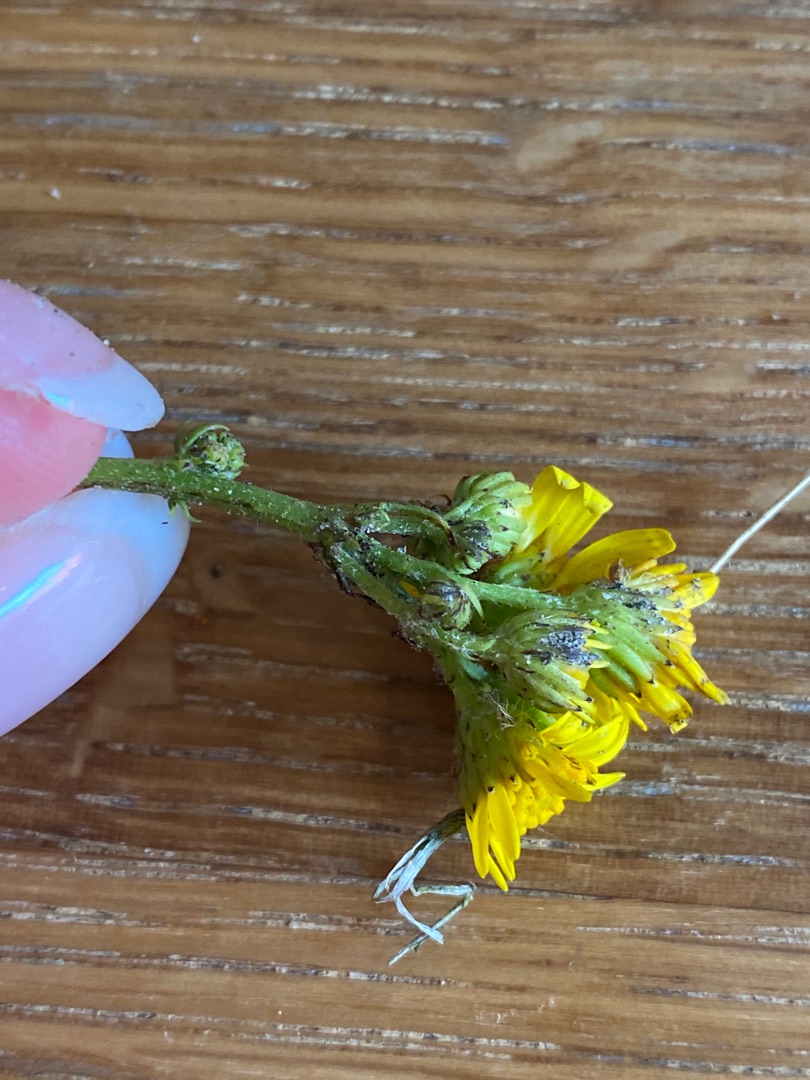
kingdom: Plantae
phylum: Tracheophyta
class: Magnoliopsida
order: Asterales
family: Asteraceae
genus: Jacobaea
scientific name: Jacobaea vulgaris
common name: Eng-brandbæger
